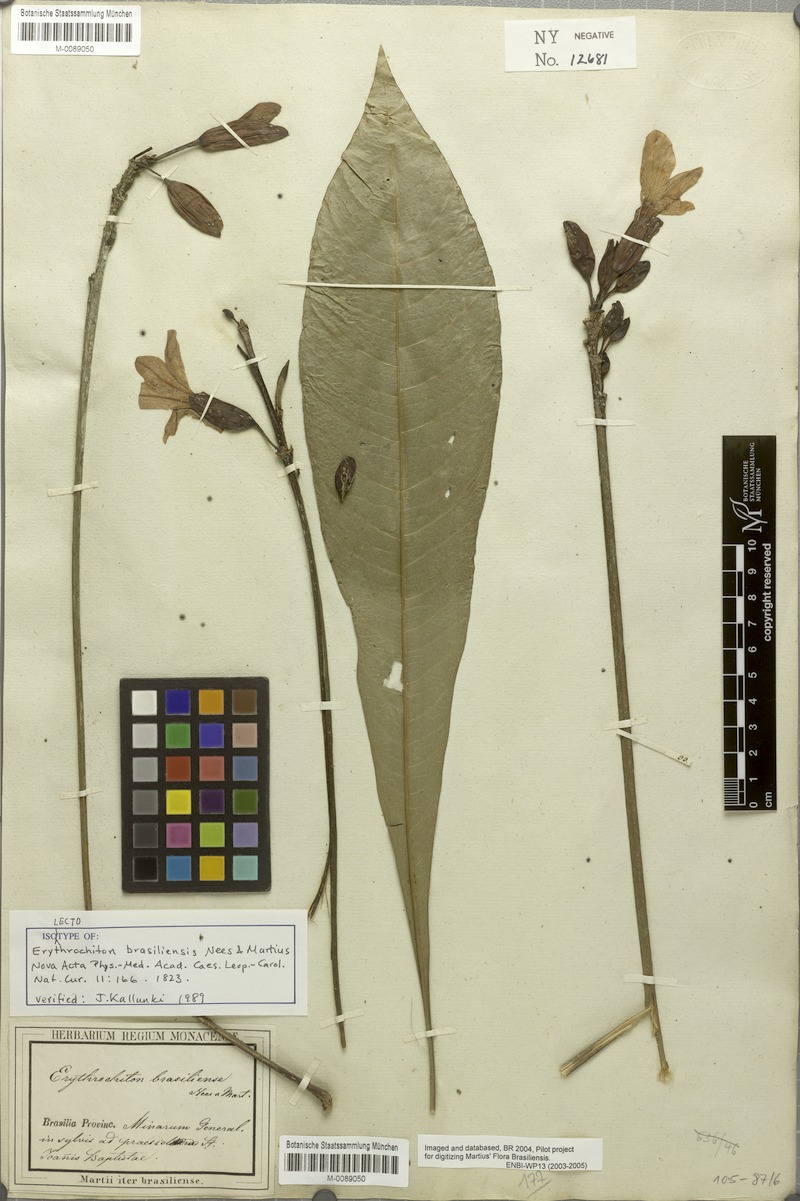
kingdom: Plantae
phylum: Tracheophyta
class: Magnoliopsida
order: Sapindales
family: Rutaceae
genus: Erythrochiton
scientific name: Erythrochiton brasiliensis
